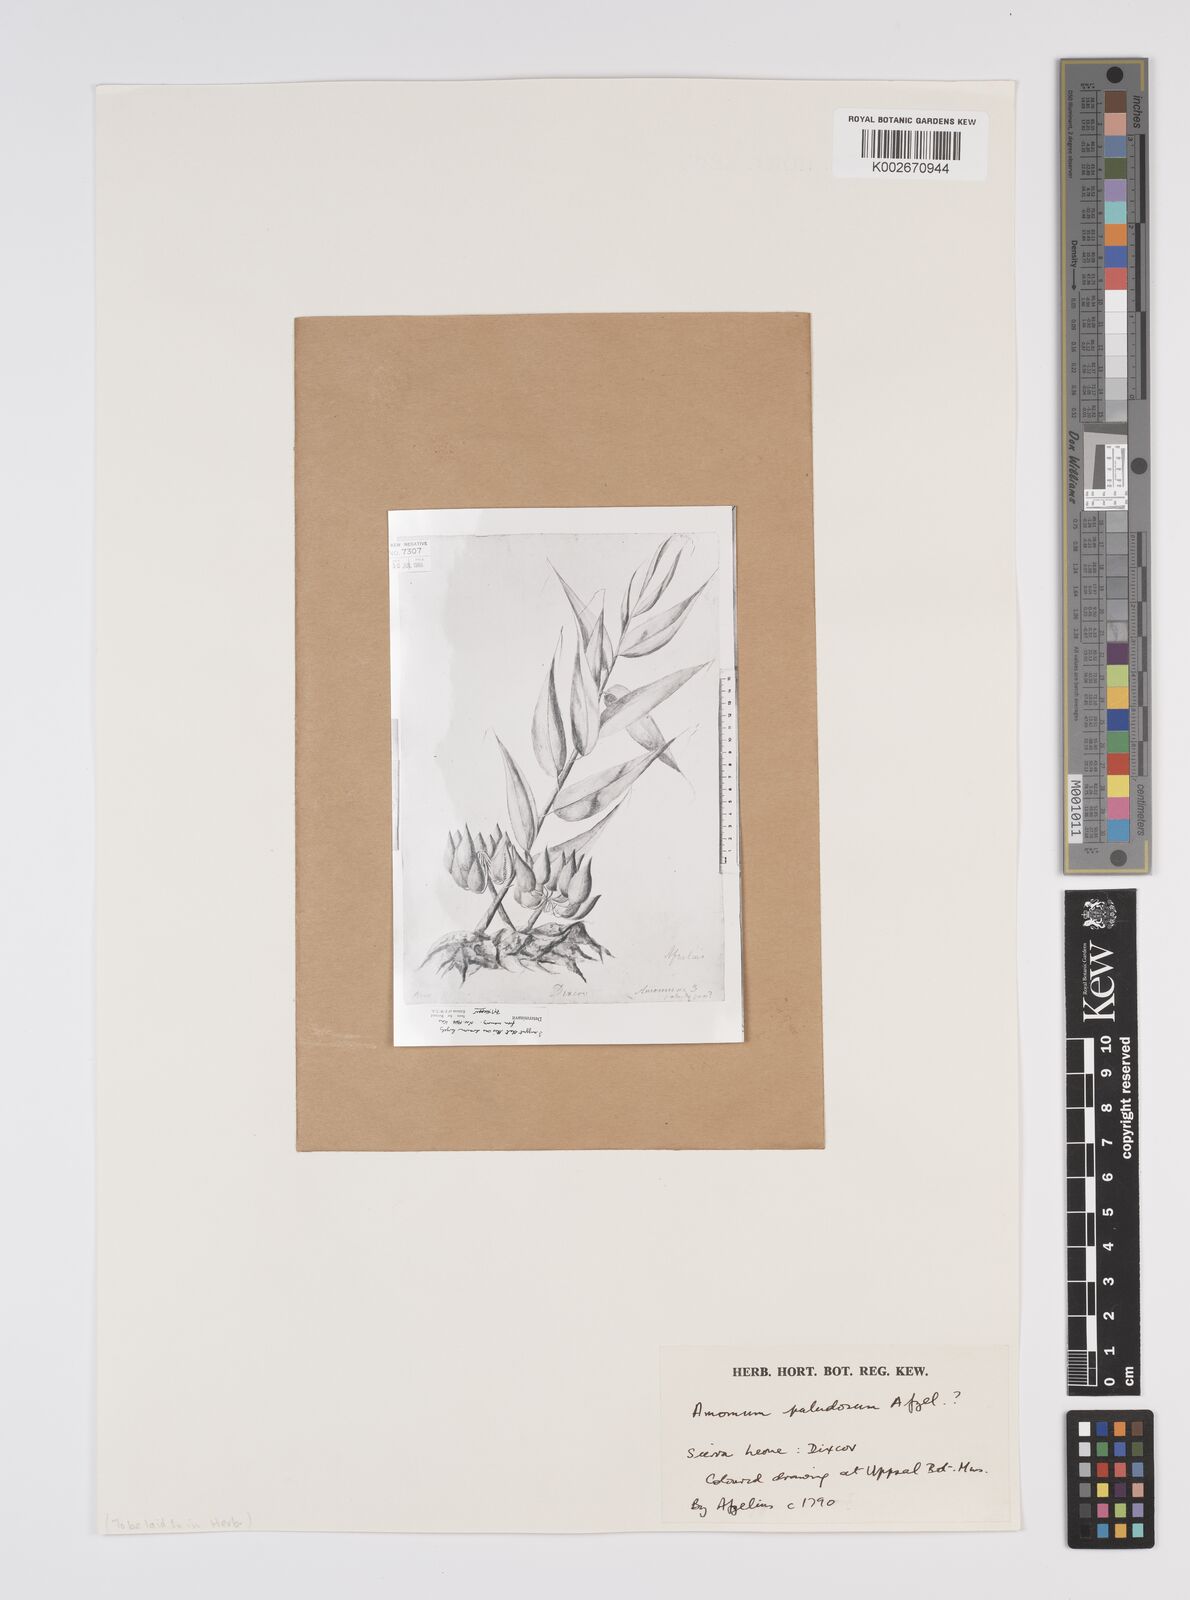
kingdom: Plantae
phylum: Tracheophyta
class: Liliopsida
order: Zingiberales
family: Zingiberaceae
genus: Aframomum
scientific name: Aframomum strobilaceum
